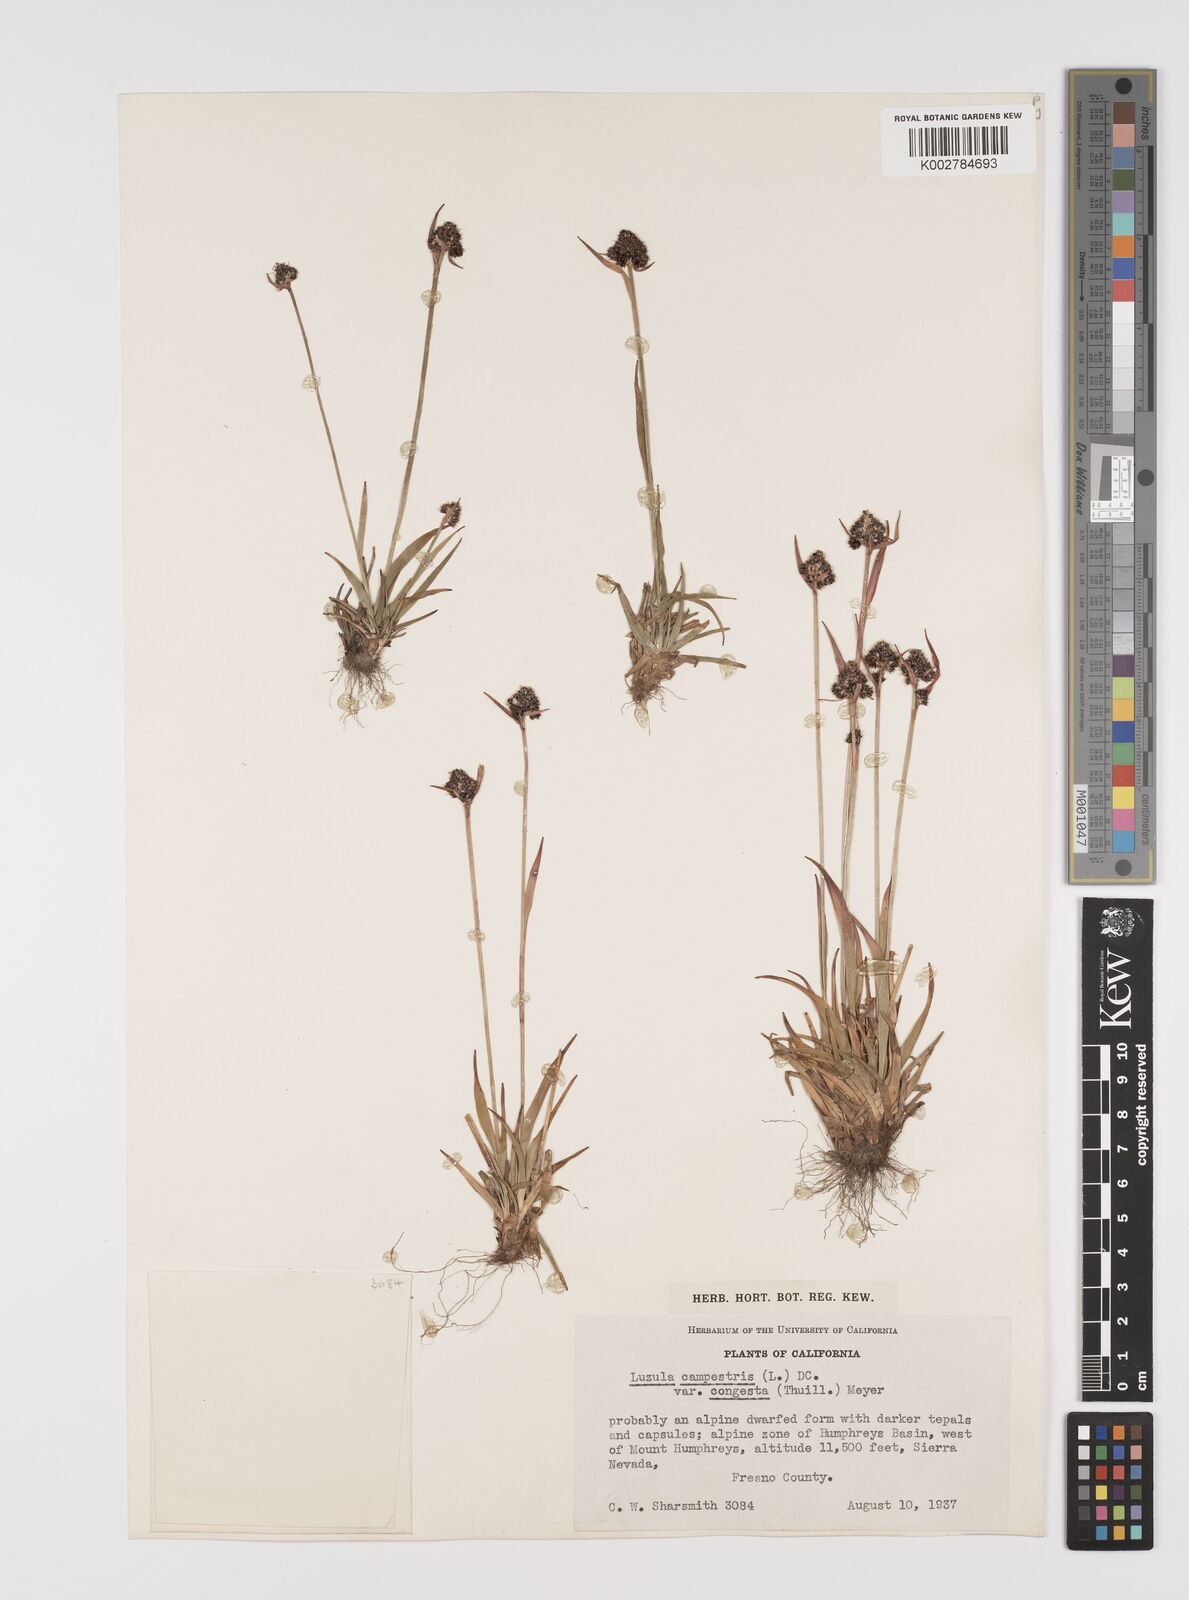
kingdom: Plantae
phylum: Tracheophyta
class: Liliopsida
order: Poales
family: Juncaceae
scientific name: Juncaceae
